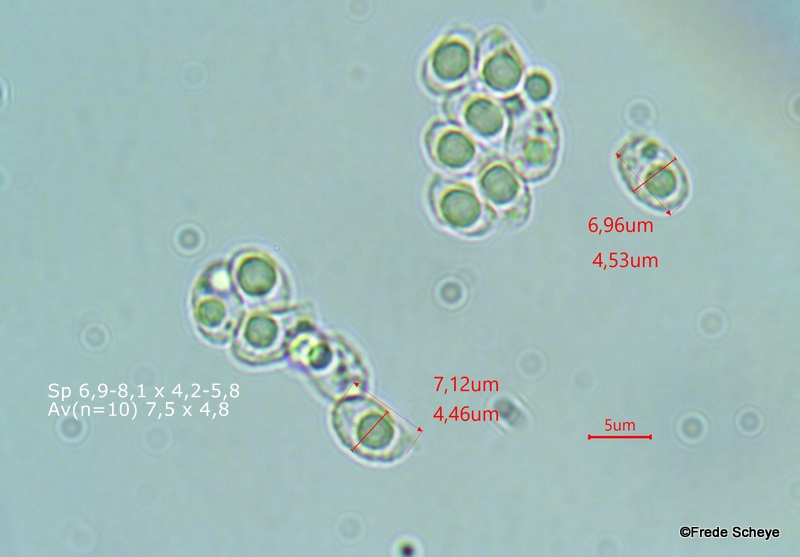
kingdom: Fungi
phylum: Basidiomycota
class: Agaricomycetes
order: Agaricales
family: Tricholomataceae
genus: Lepista
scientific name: Lepista
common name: hekseringshat
